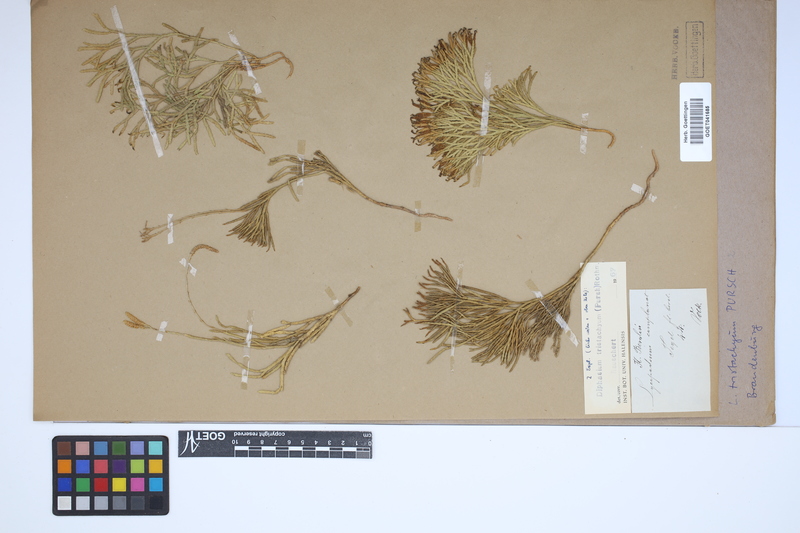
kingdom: Plantae
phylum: Tracheophyta
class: Lycopodiopsida
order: Lycopodiales
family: Lycopodiaceae
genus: Diphasiastrum
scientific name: Diphasiastrum tristachyum
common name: Blue ground-cedar
